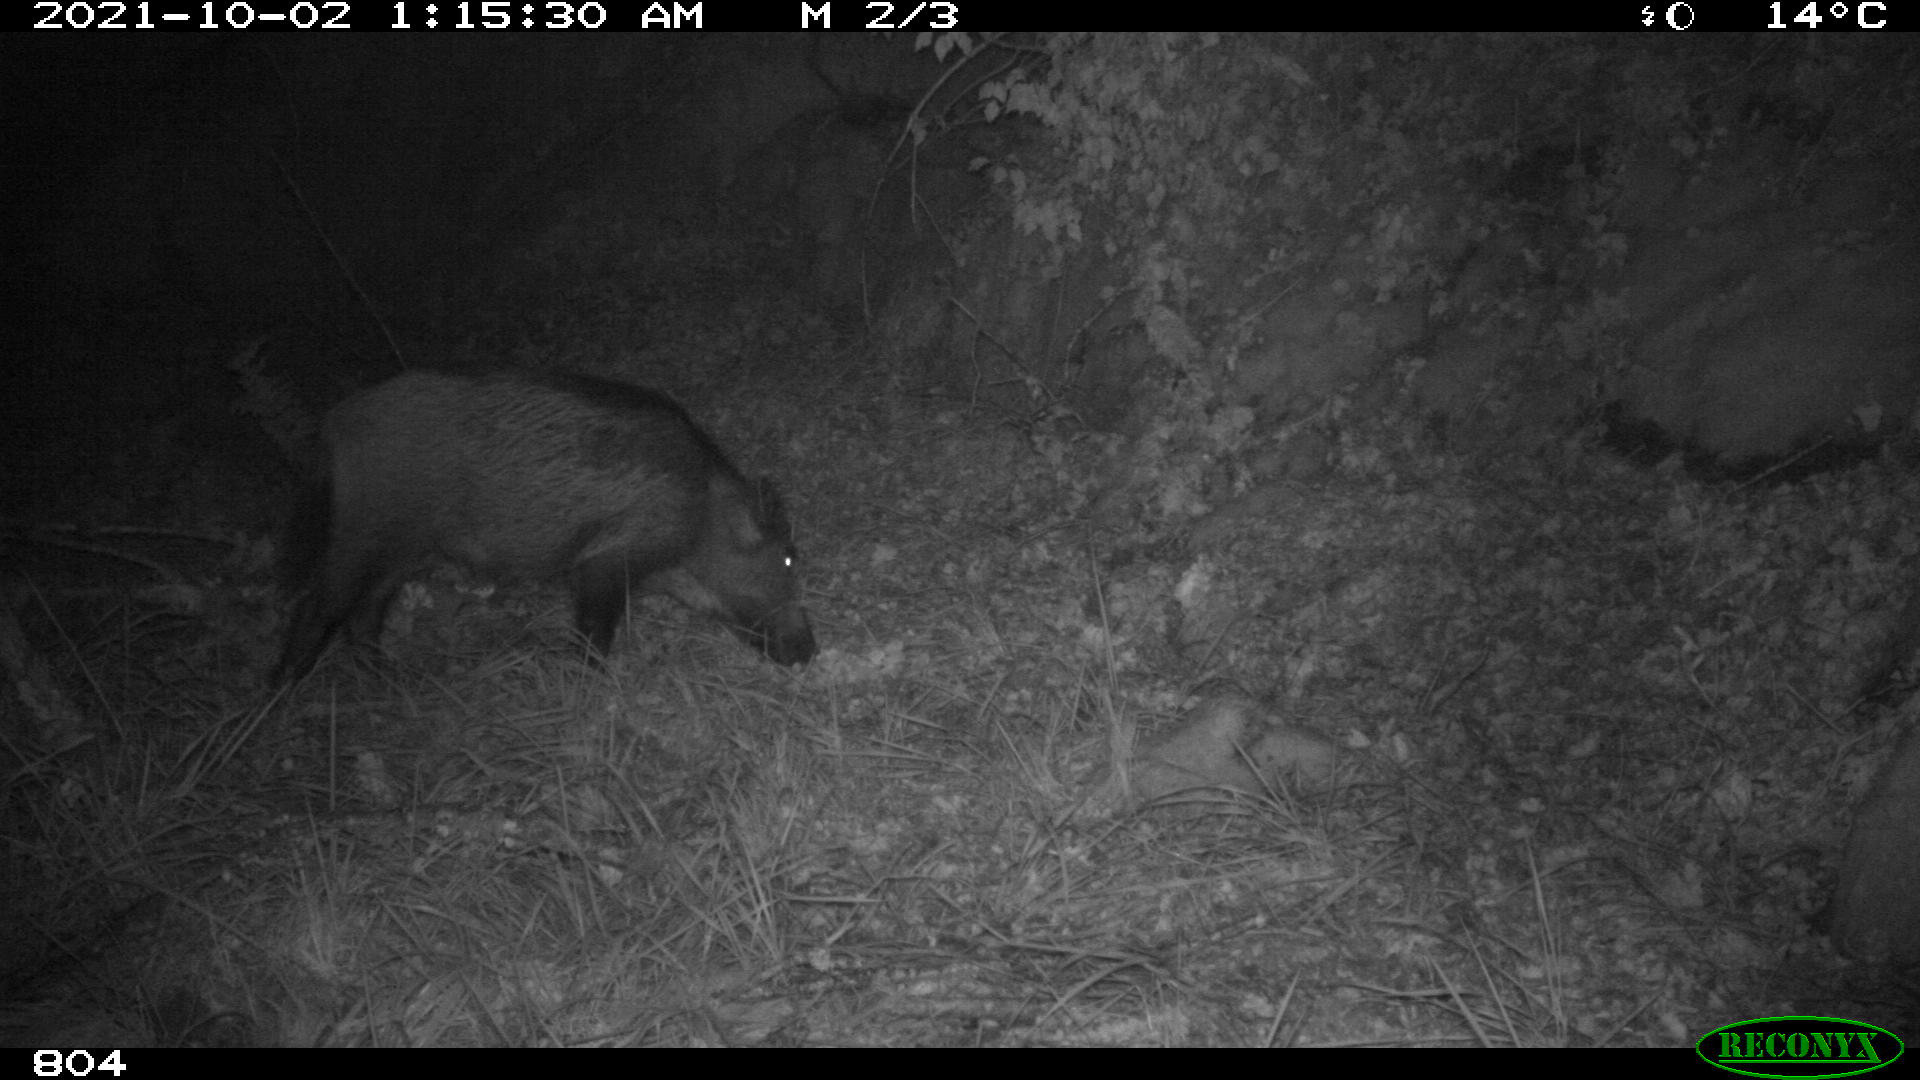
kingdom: Animalia
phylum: Chordata
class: Mammalia
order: Artiodactyla
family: Suidae
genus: Sus
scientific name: Sus scrofa
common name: Wild boar
